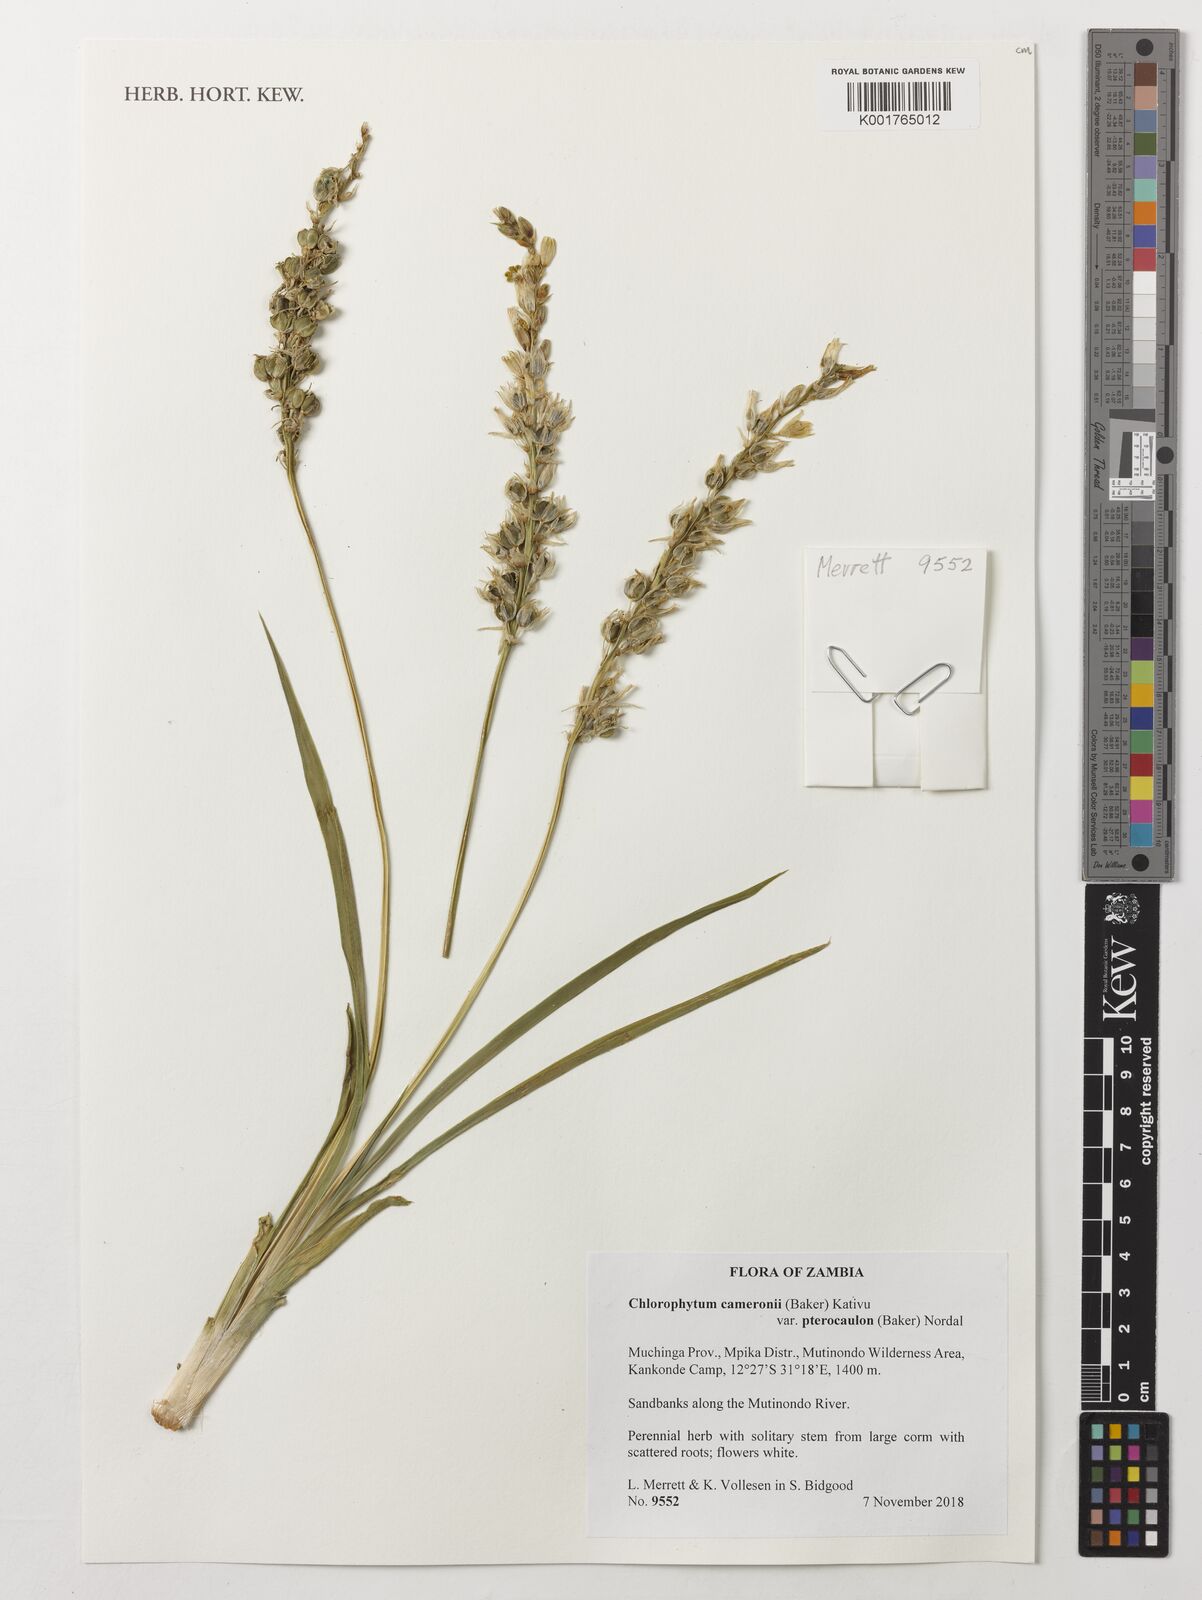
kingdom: Plantae
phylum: Tracheophyta
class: Liliopsida
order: Asparagales
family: Asparagaceae
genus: Chlorophytum
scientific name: Chlorophytum cameronii
